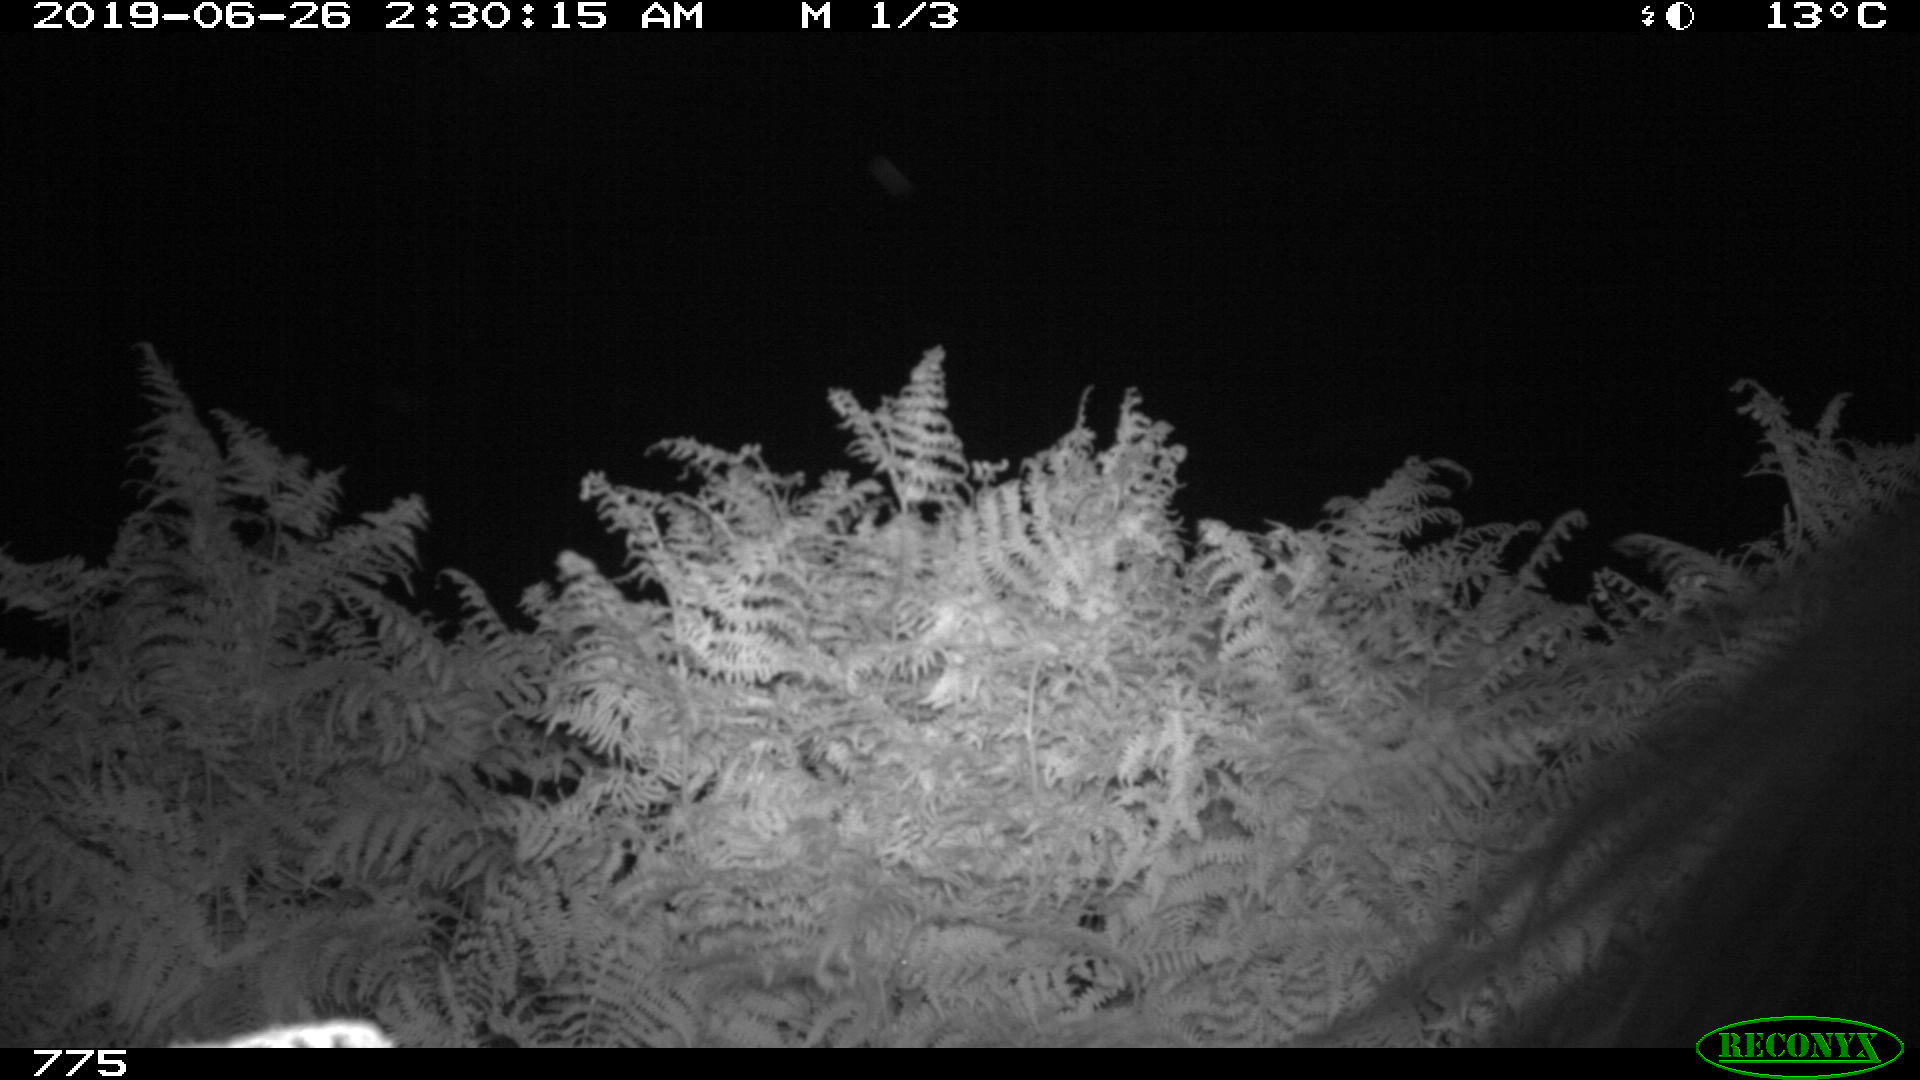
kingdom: Animalia
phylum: Chordata
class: Mammalia
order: Perissodactyla
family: Equidae
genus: Equus
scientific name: Equus caballus
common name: Horse
